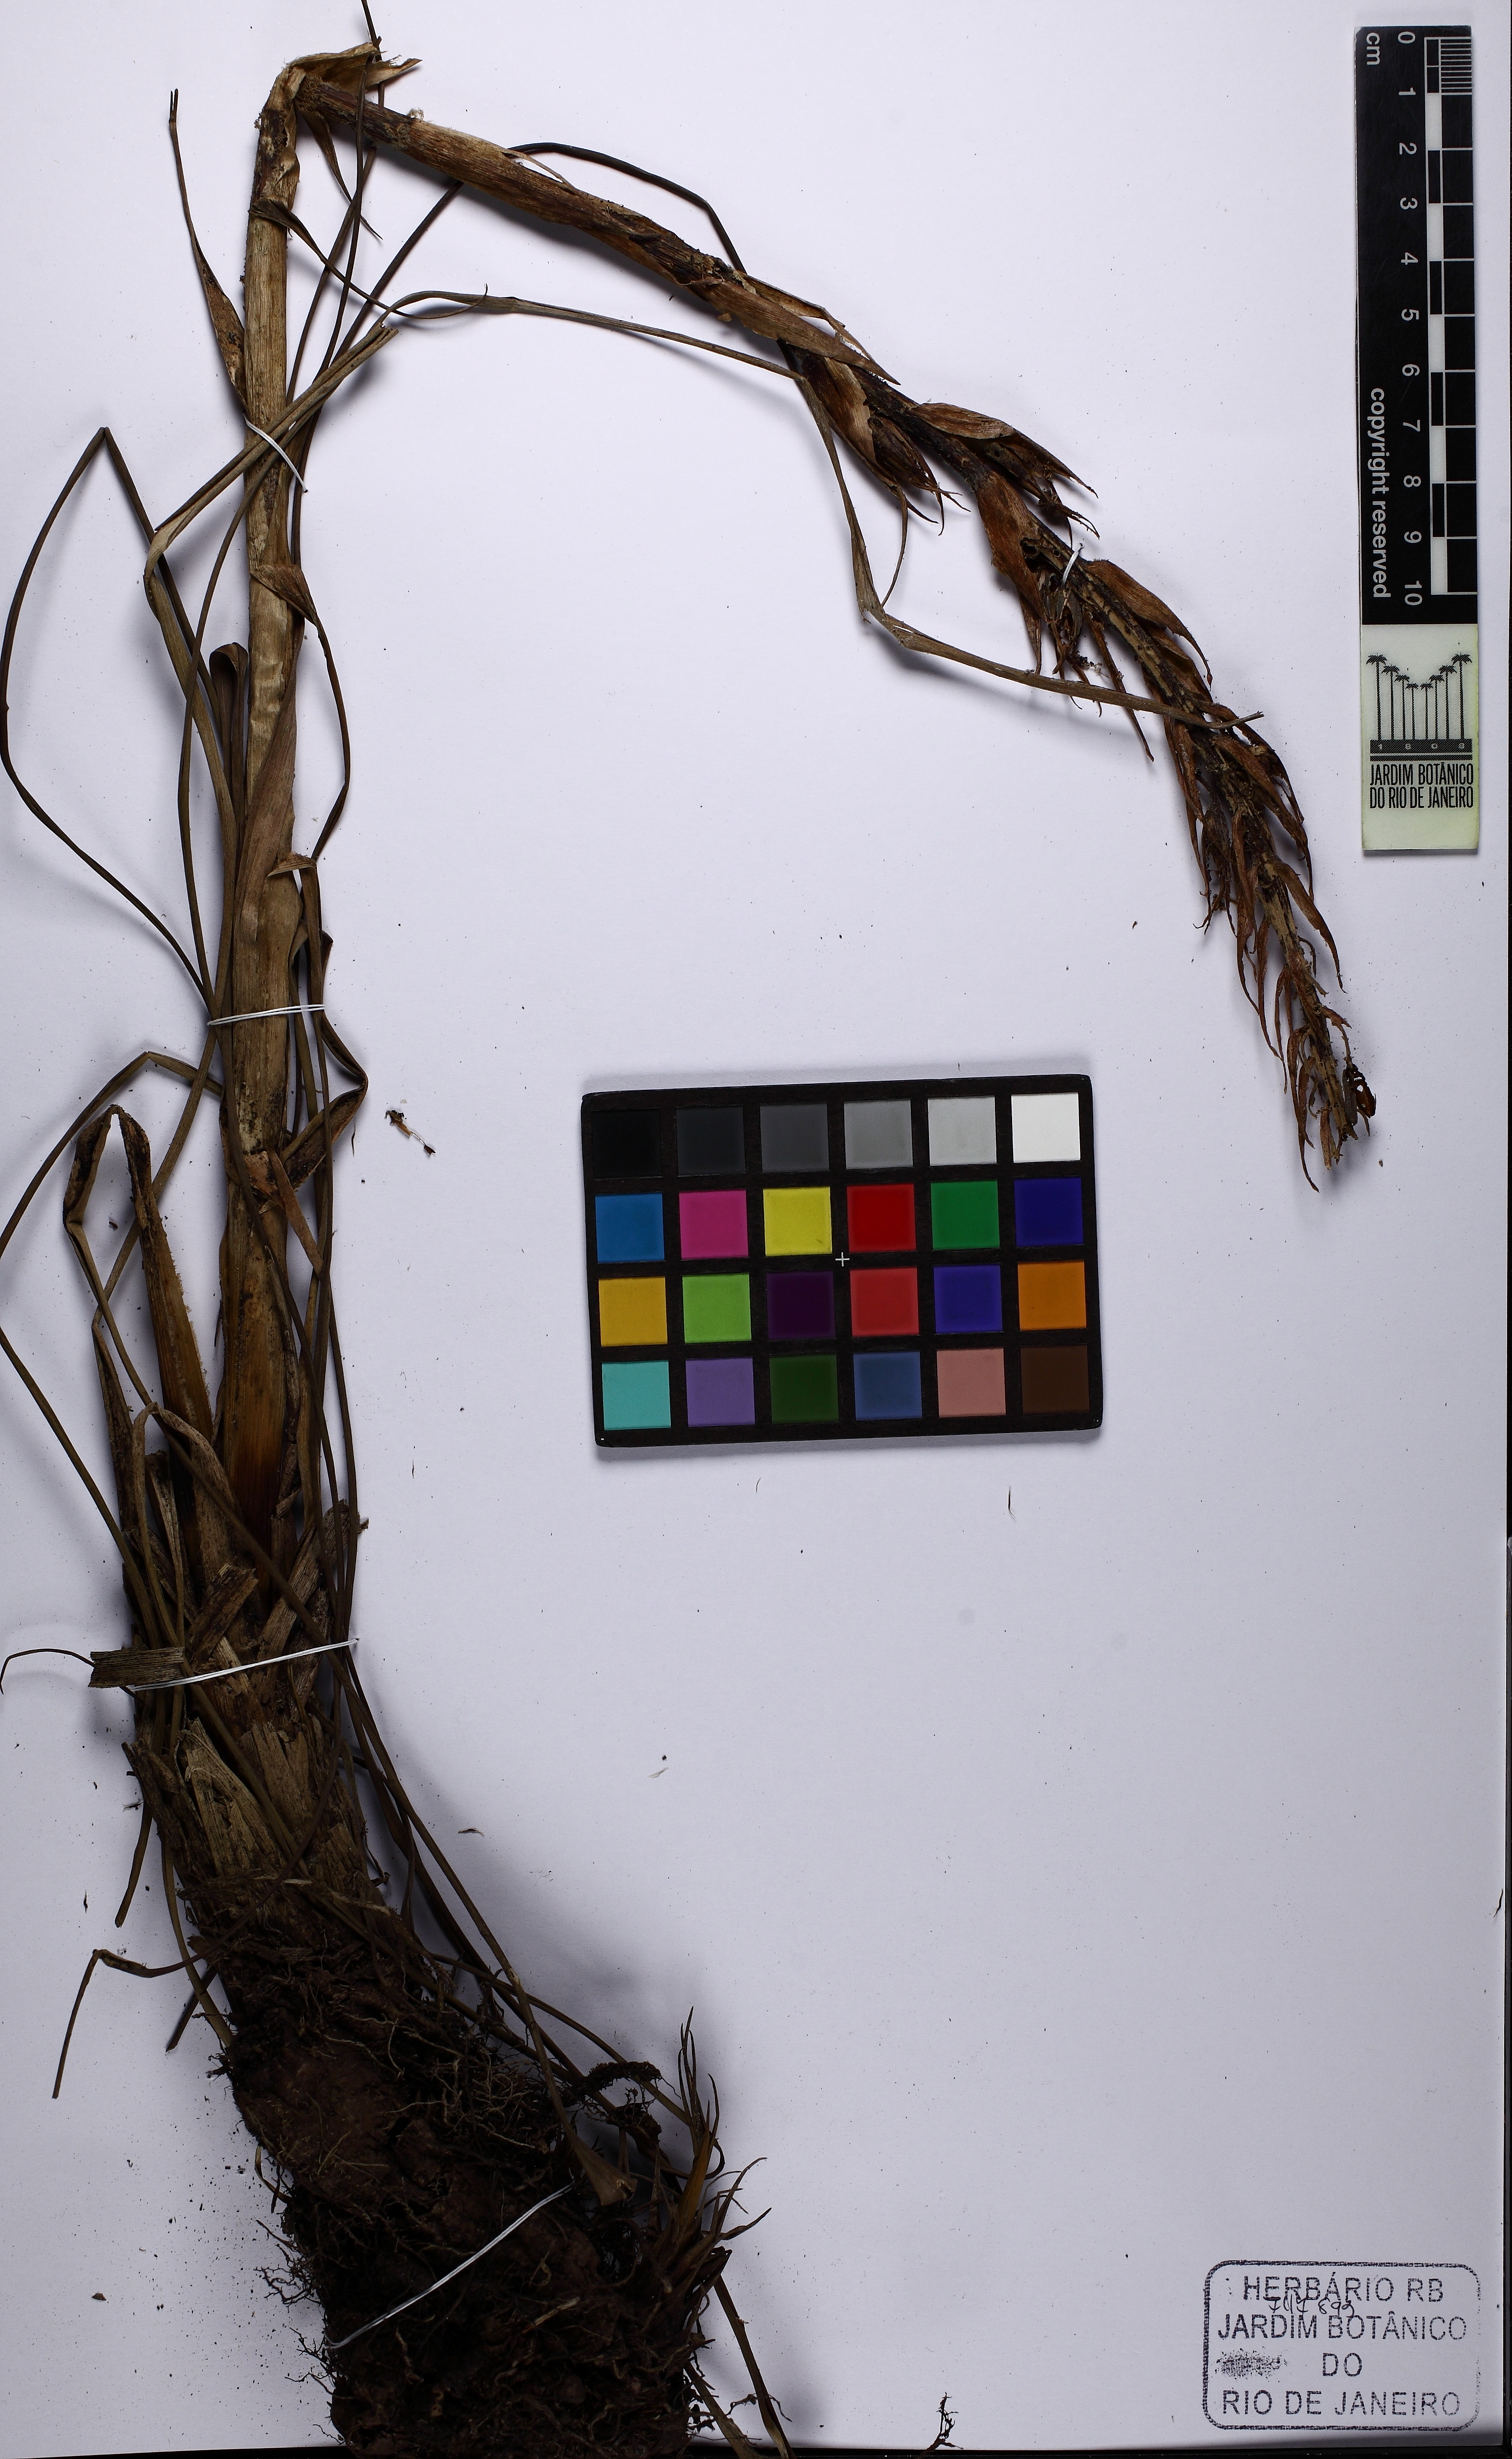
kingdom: Plantae
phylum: Tracheophyta
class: Liliopsida
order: Poales
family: Bromeliaceae
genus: Pitcairnia
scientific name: Pitcairnia flammea
